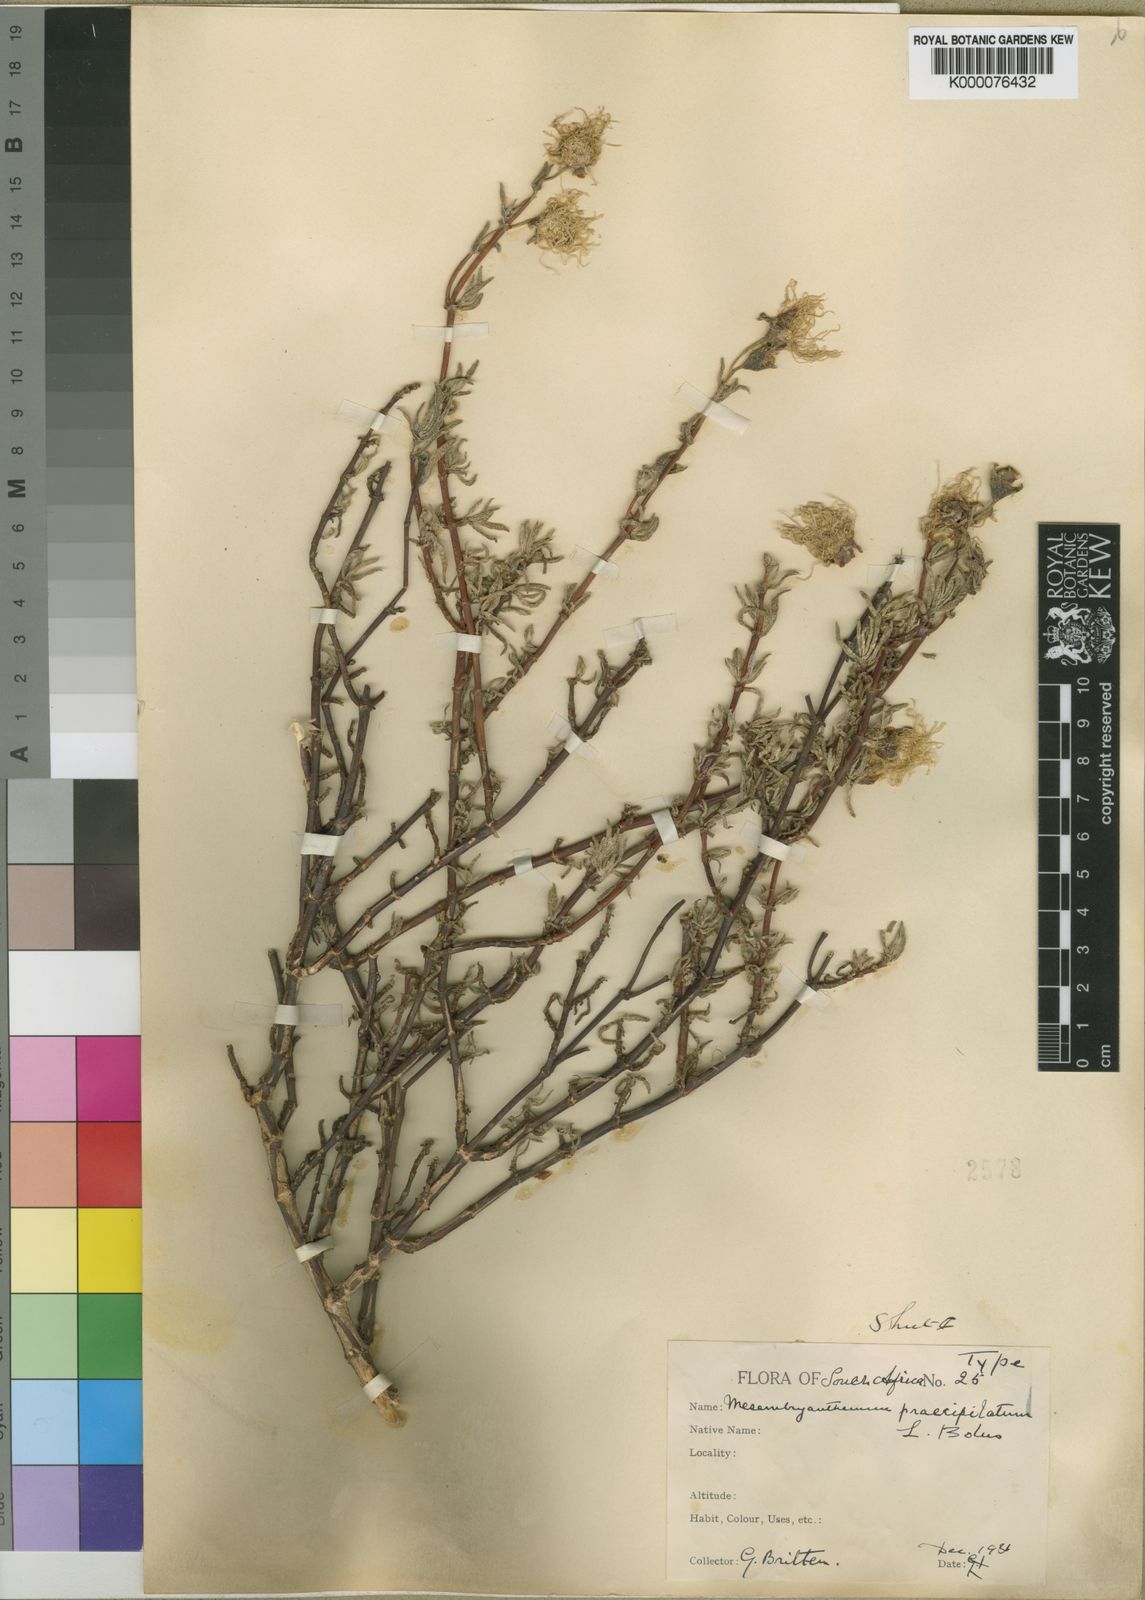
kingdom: Plantae
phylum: Tracheophyta
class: Magnoliopsida
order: Caryophyllales
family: Aizoaceae
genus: Lampranthus
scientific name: Lampranthus praecipitatus
